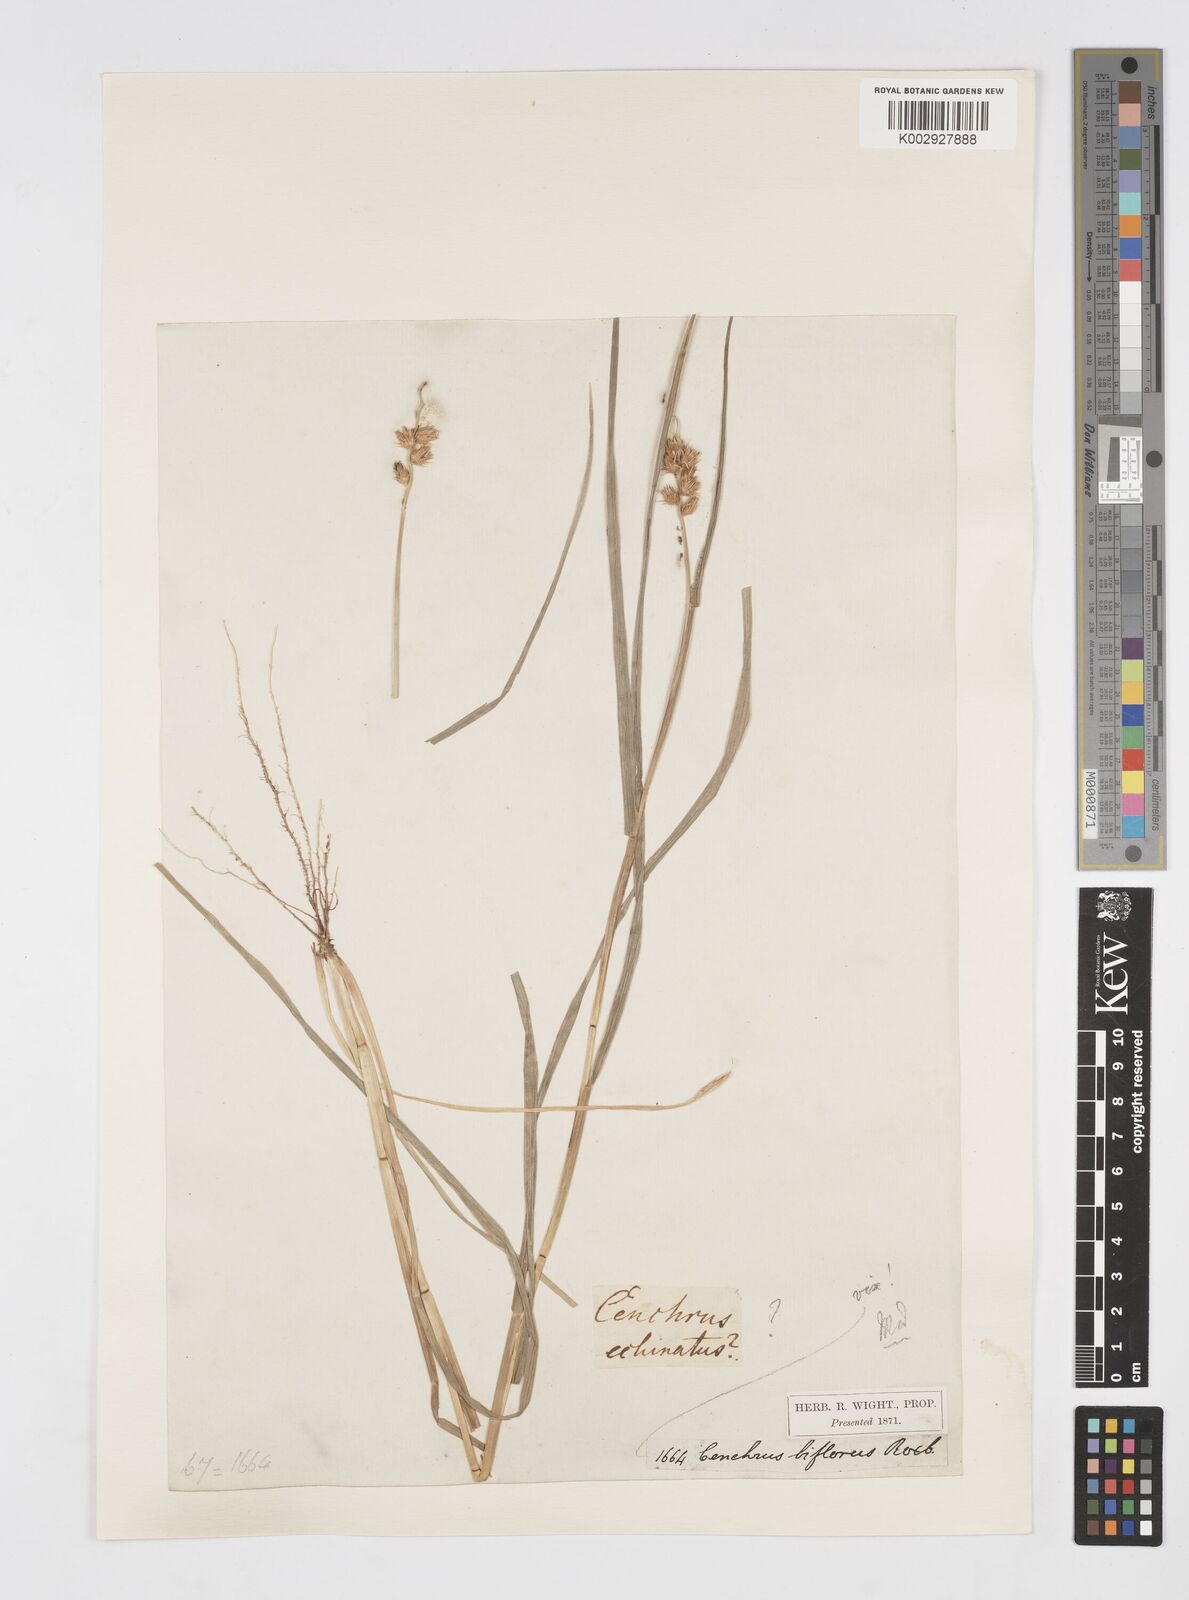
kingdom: Plantae
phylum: Tracheophyta
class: Liliopsida
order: Poales
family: Poaceae
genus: Cenchrus
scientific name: Cenchrus echinatus
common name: Southern sandbur
